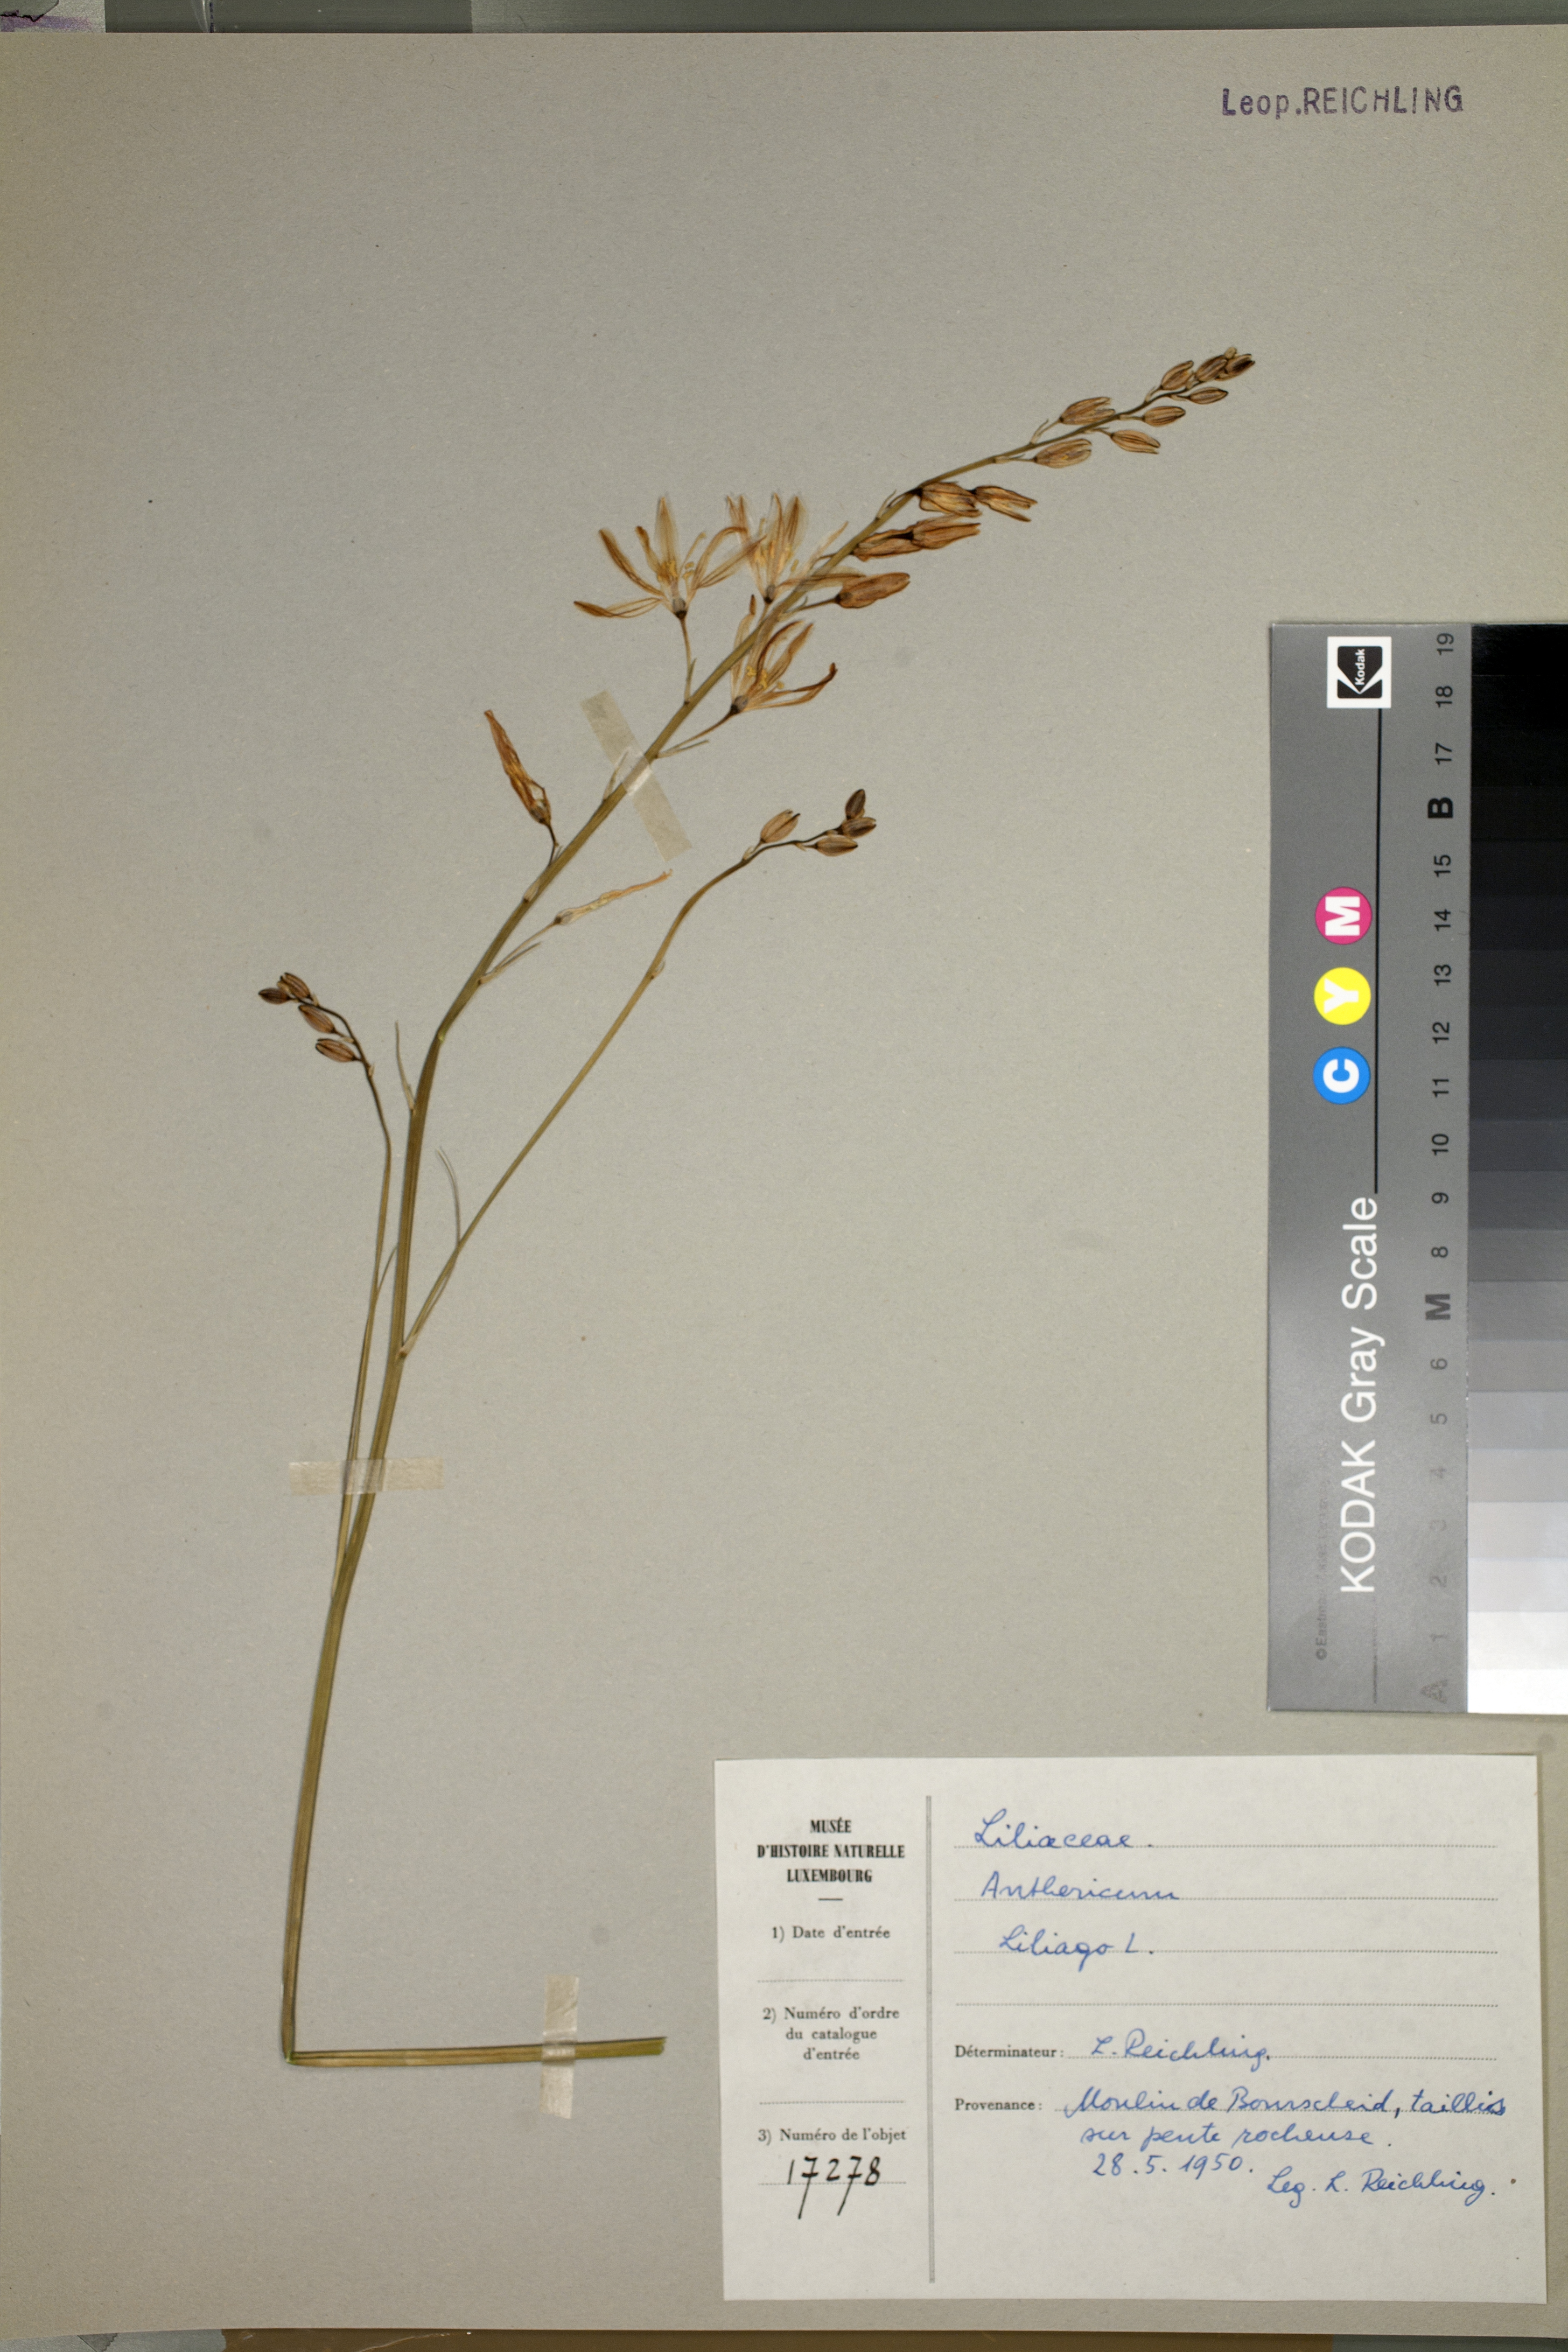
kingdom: Plantae
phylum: Tracheophyta
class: Liliopsida
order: Asparagales
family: Asparagaceae
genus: Anthericum
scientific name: Anthericum liliago
